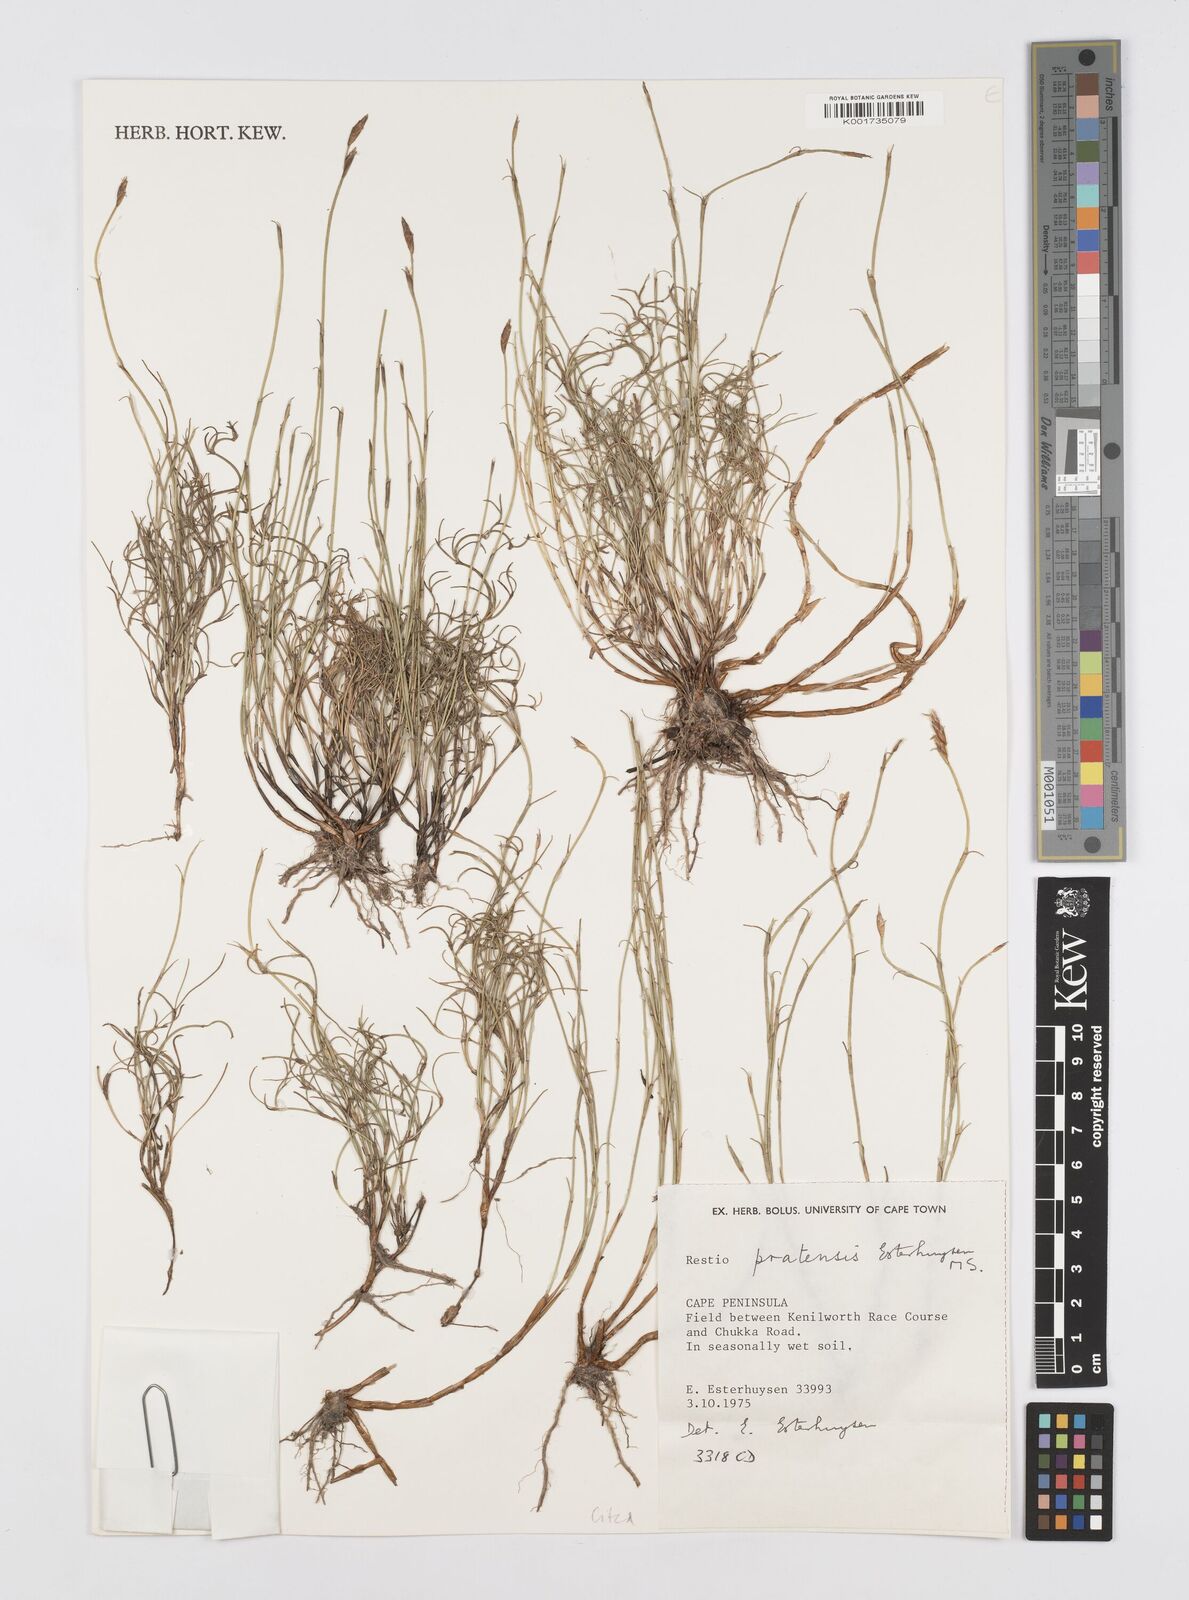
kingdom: Plantae
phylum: Tracheophyta
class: Liliopsida
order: Poales
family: Restionaceae
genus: Restio
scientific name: Restio pratensis
